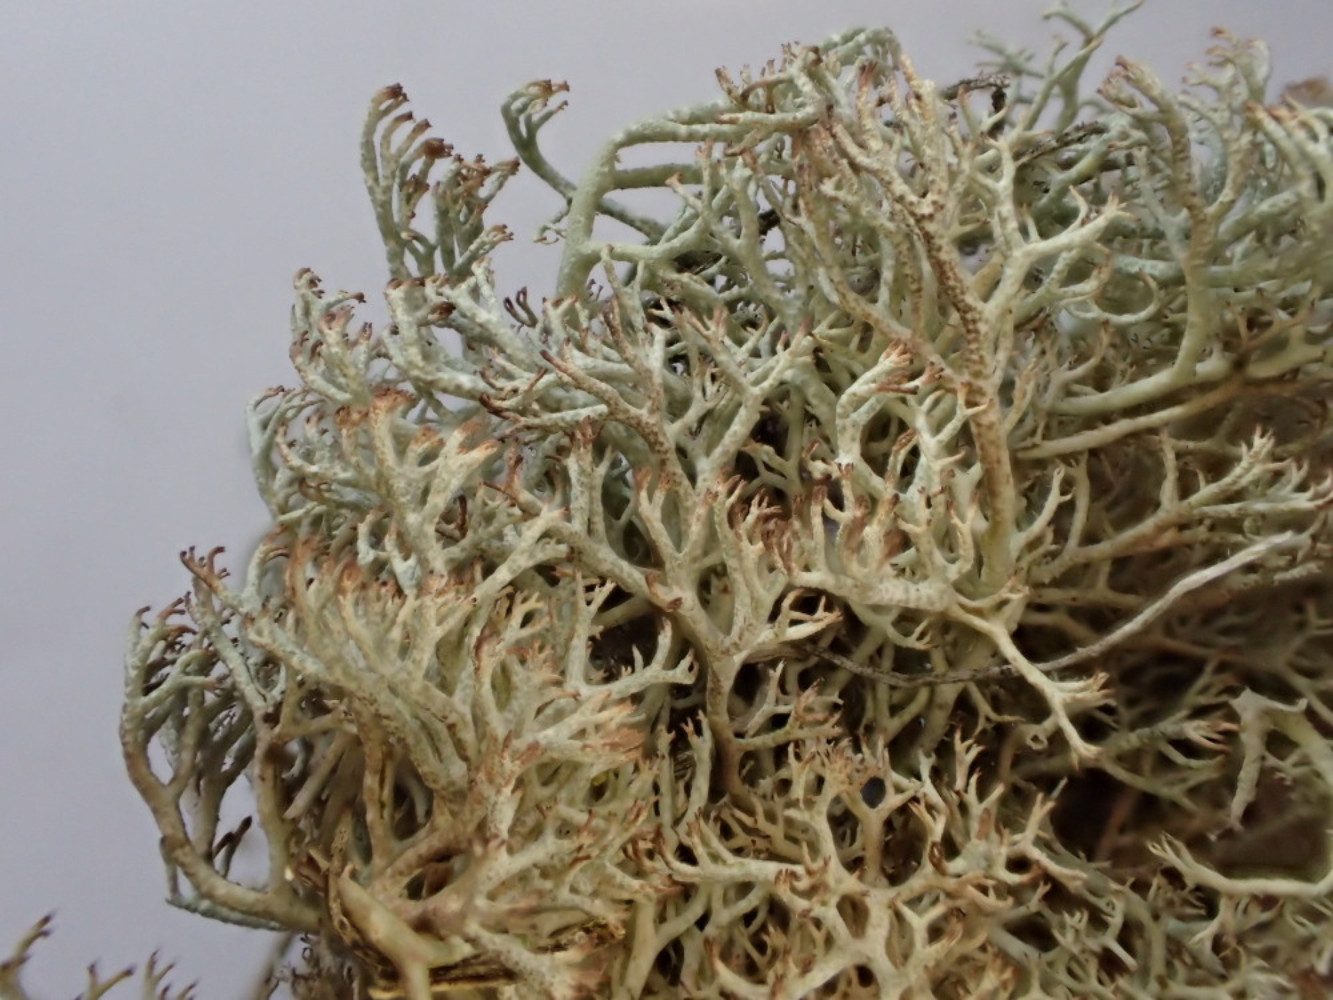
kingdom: Fungi
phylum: Ascomycota
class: Lecanoromycetes
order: Lecanorales
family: Cladoniaceae
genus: Cladonia
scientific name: Cladonia ciliata
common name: spinkel rensdyrlav
